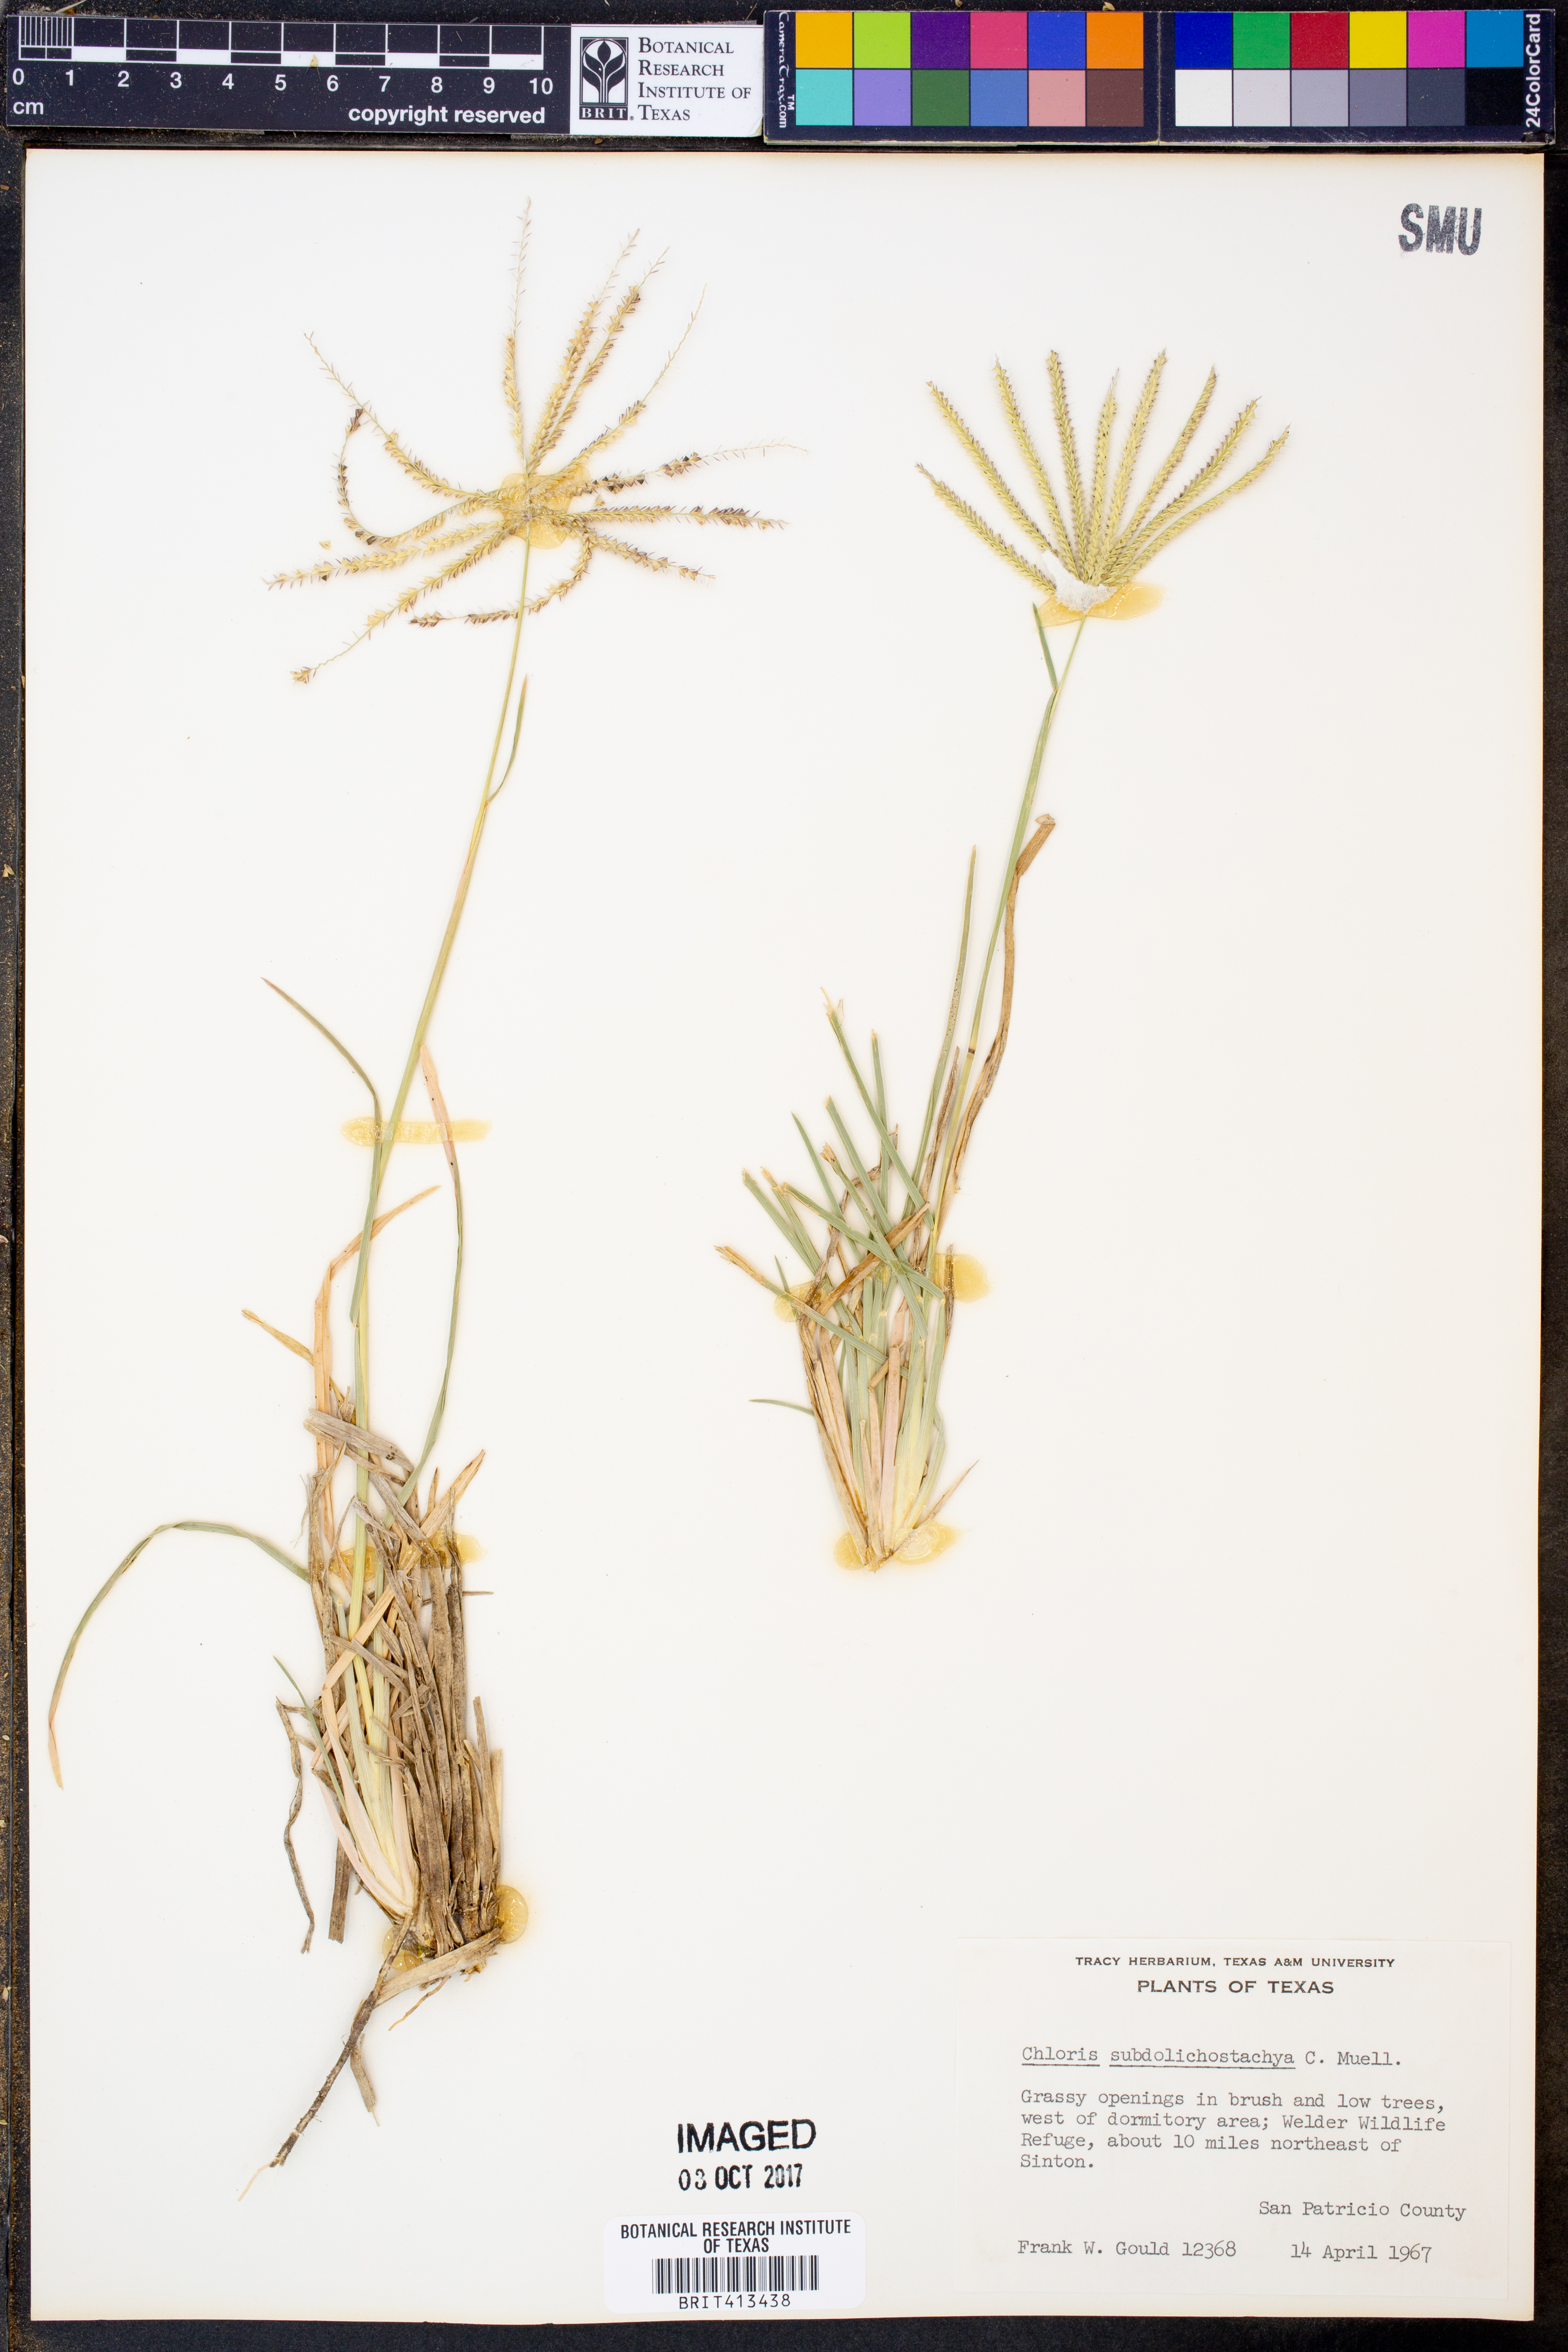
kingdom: Plantae
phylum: Tracheophyta
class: Liliopsida
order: Poales
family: Poaceae
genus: Chloris
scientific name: Chloris subdolichostachya
